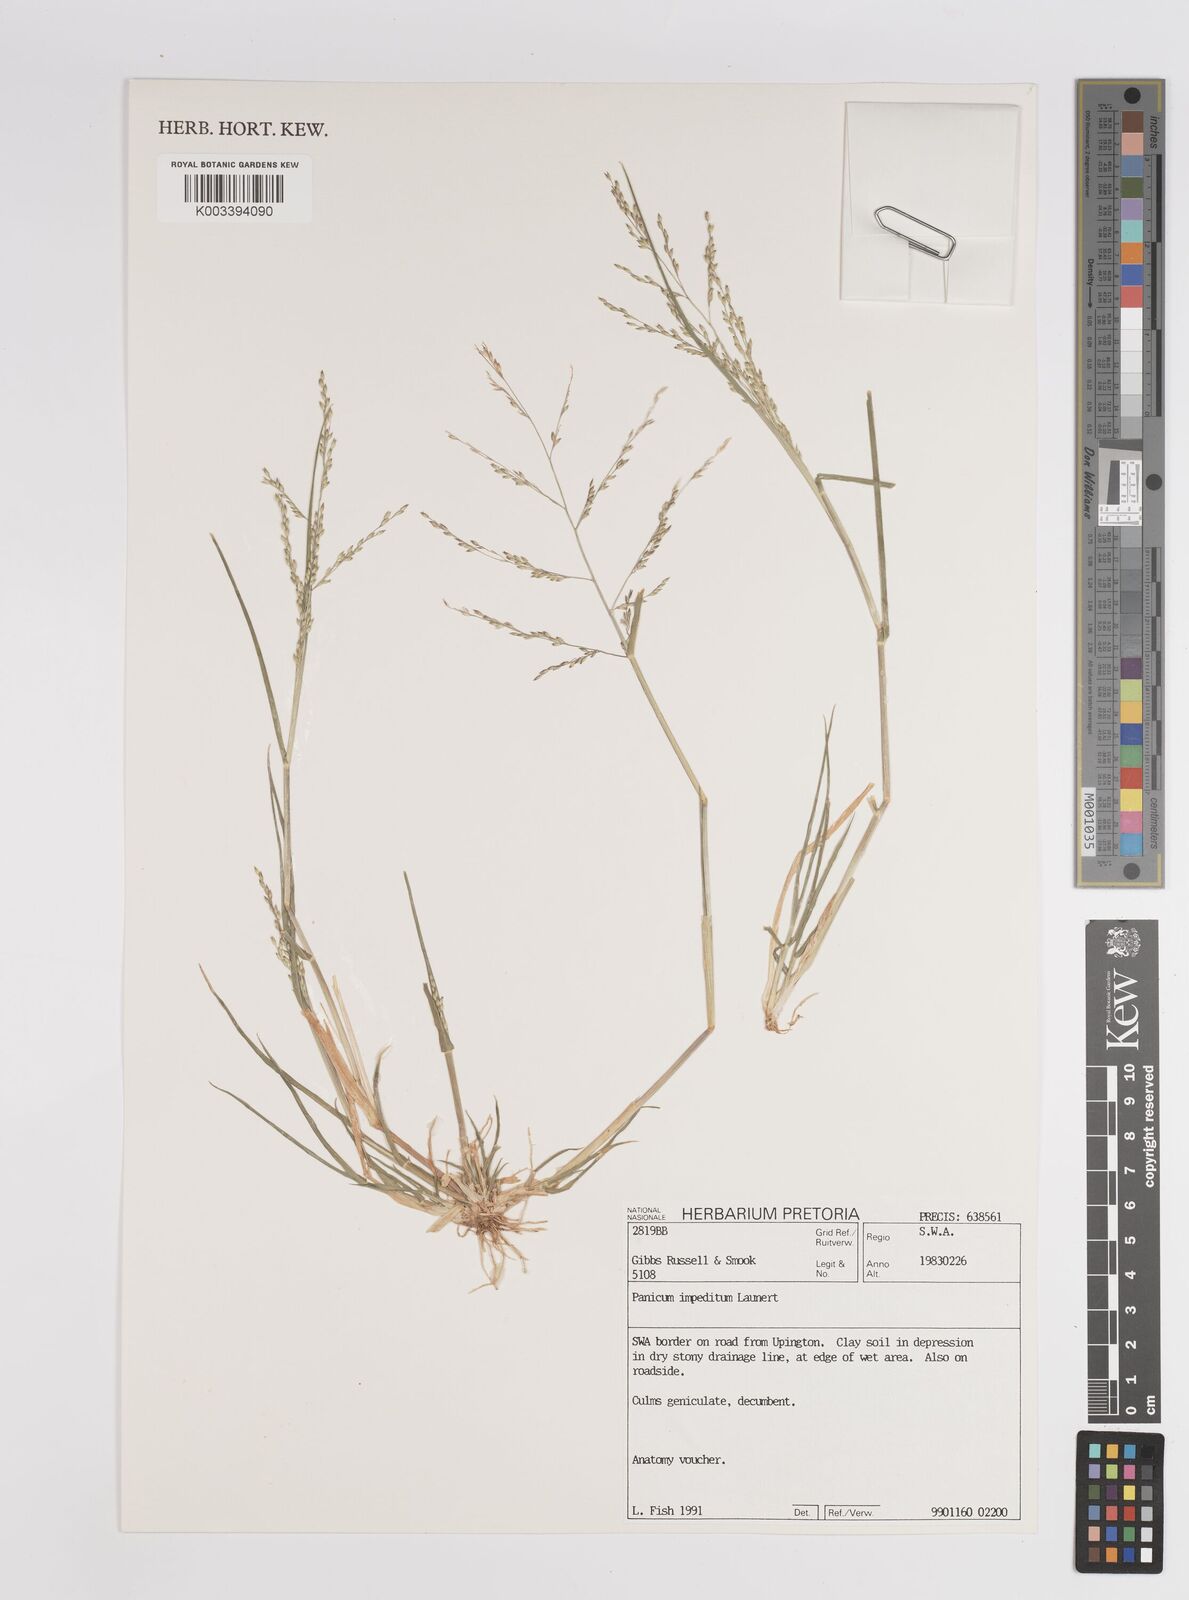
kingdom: Plantae
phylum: Tracheophyta
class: Liliopsida
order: Poales
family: Poaceae
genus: Panicum
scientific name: Panicum impeditum
